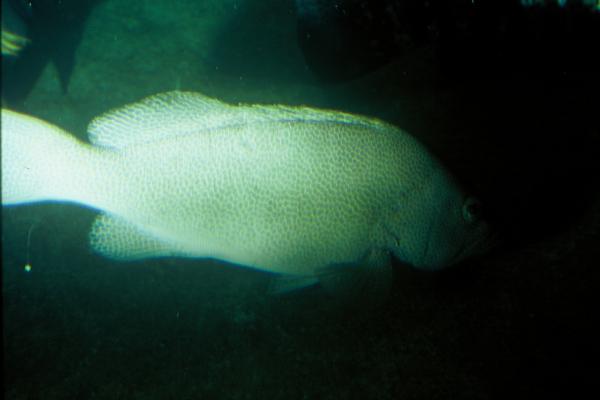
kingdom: Animalia
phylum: Chordata
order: Perciformes
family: Serranidae
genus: Epinephelus
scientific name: Epinephelus chlorostigma
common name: Brownspotted grouper
